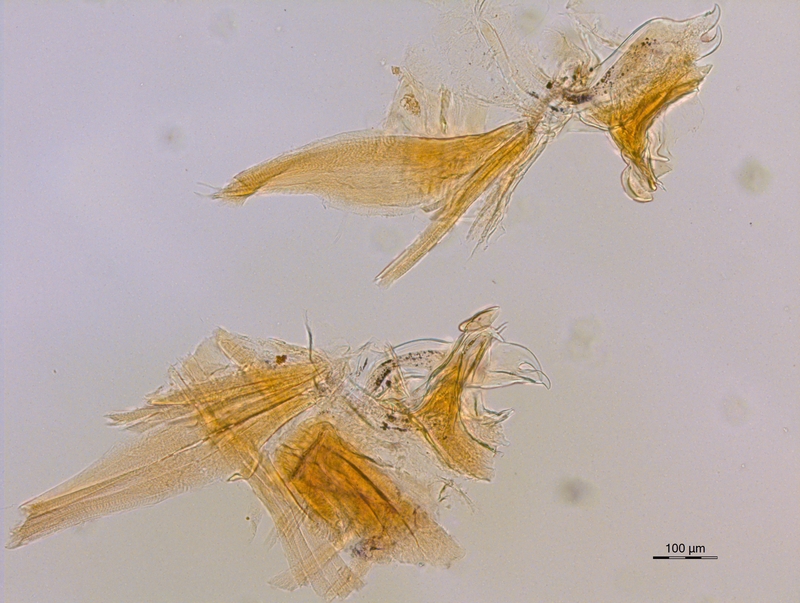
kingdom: Animalia
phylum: Arthropoda
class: Diplopoda
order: Chordeumatida
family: Craspedosomatidae
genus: Ochogona
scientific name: Ochogona caroli
